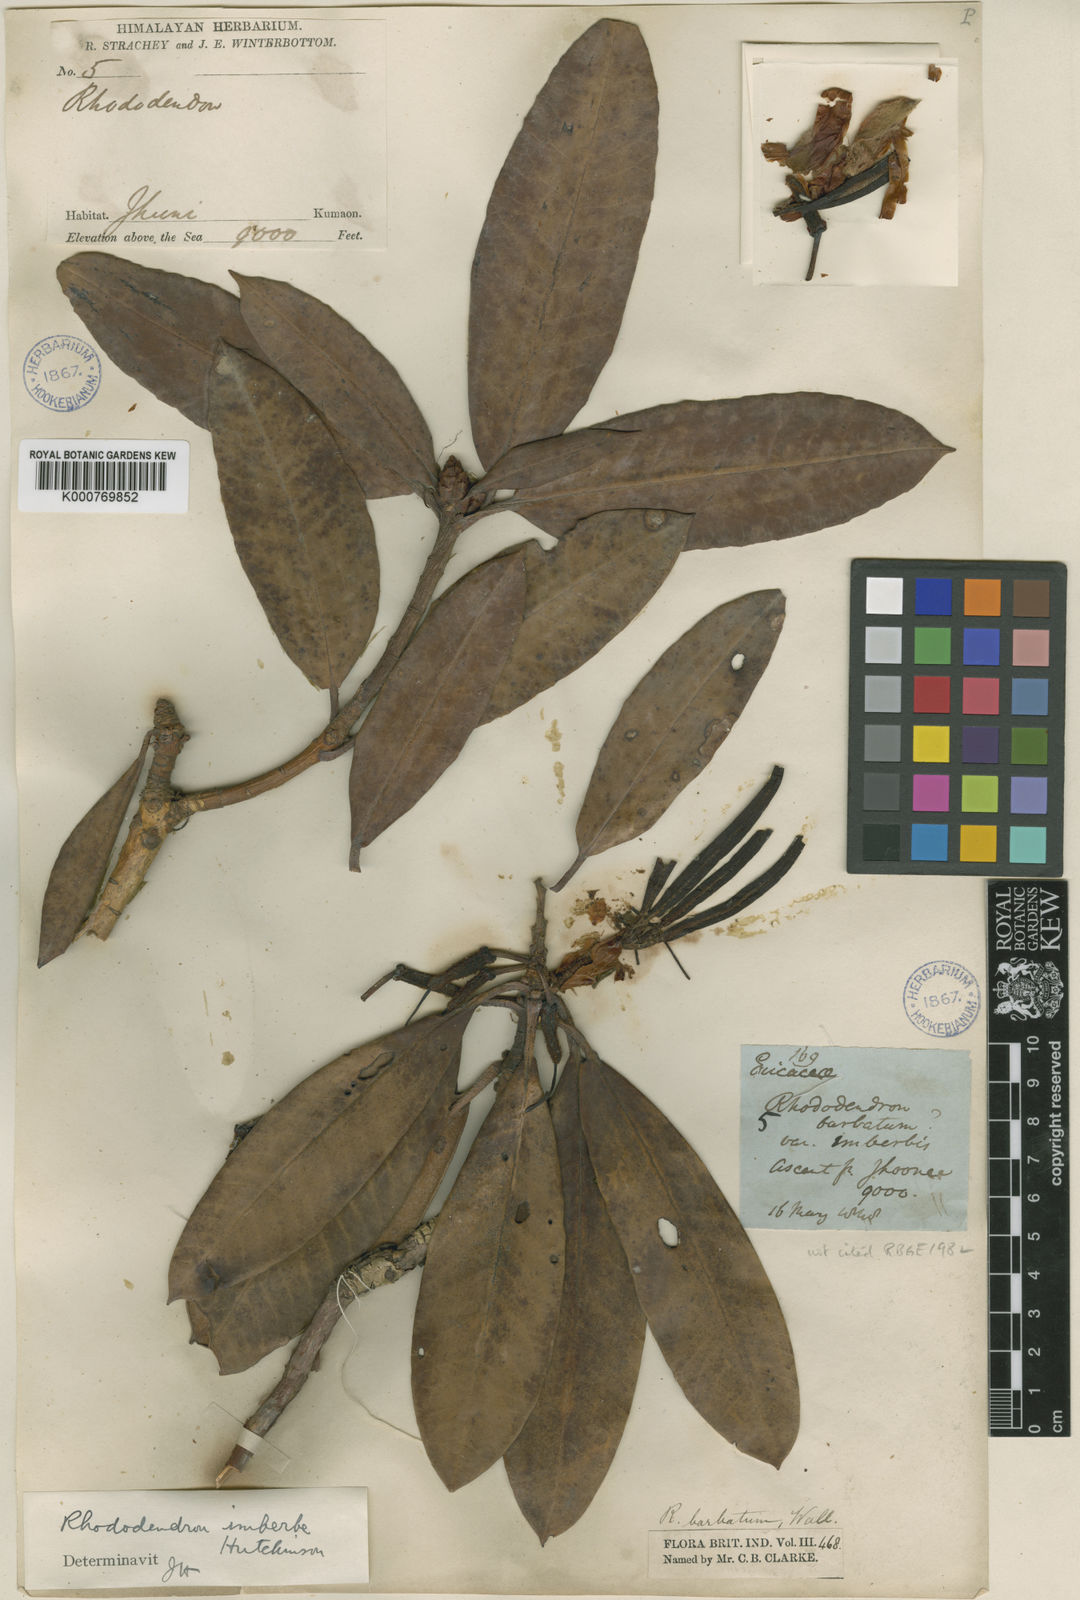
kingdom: Plantae
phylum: Tracheophyta
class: Magnoliopsida
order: Ericales
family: Ericaceae
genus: Rhododendron
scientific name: Rhododendron
